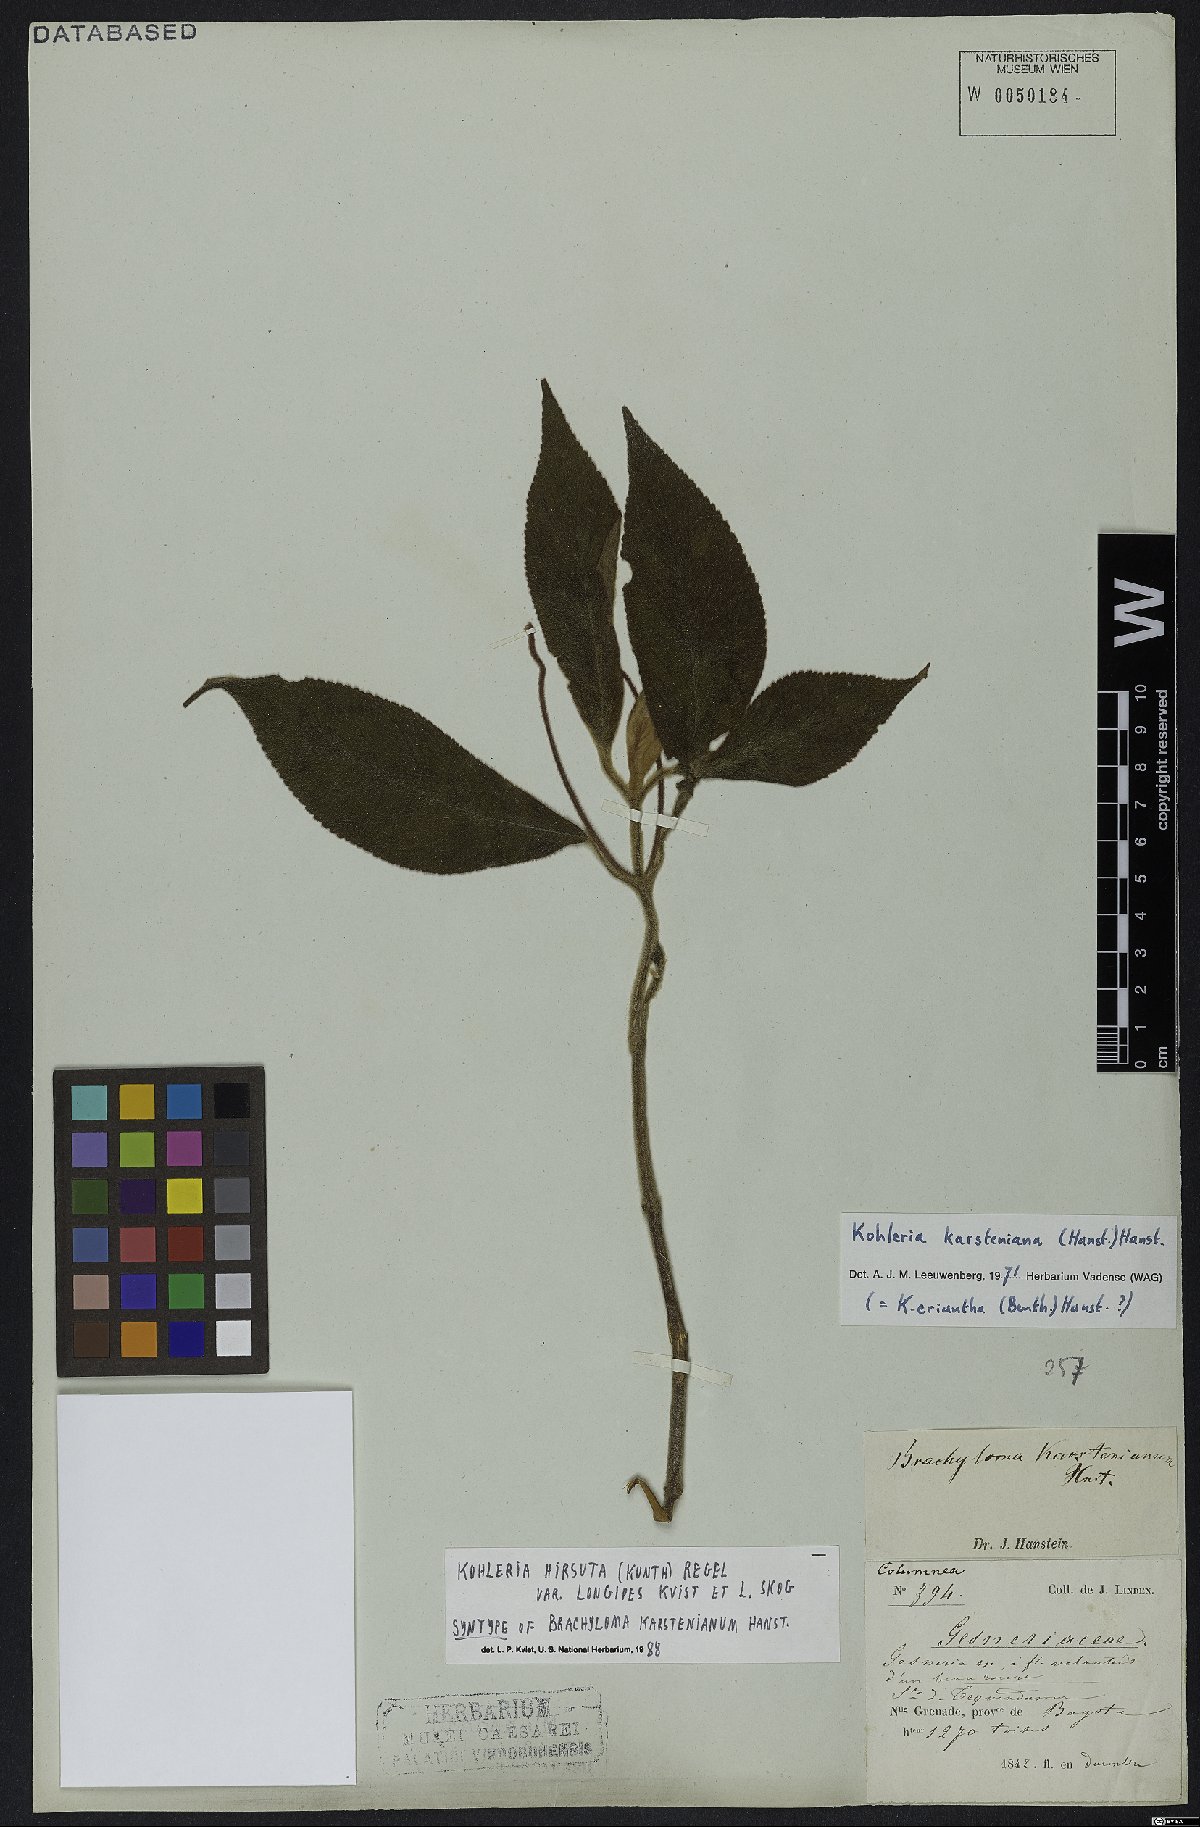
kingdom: Plantae
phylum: Tracheophyta
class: Magnoliopsida
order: Lamiales
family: Gesneriaceae
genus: Kohleria
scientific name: Kohleria hirsuta
